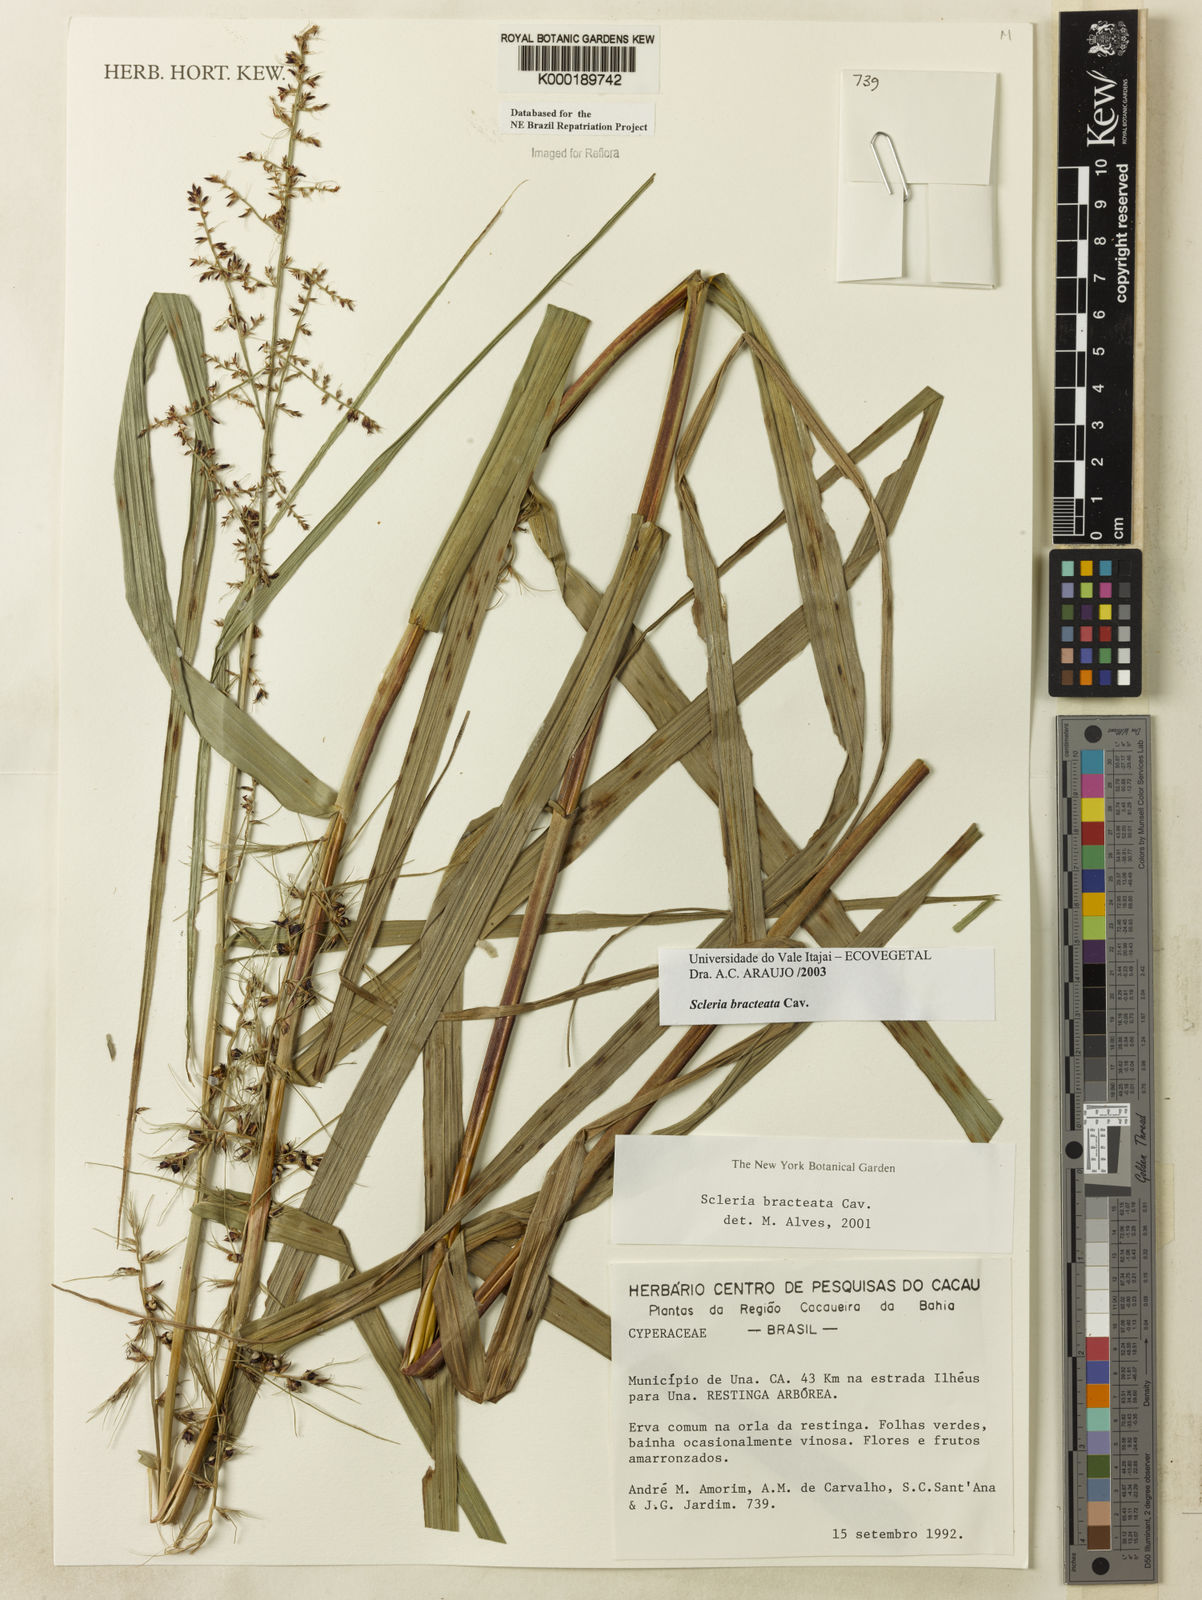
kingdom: Plantae
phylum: Tracheophyta
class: Liliopsida
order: Poales
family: Cyperaceae
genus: Scleria
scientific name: Scleria bracteata
